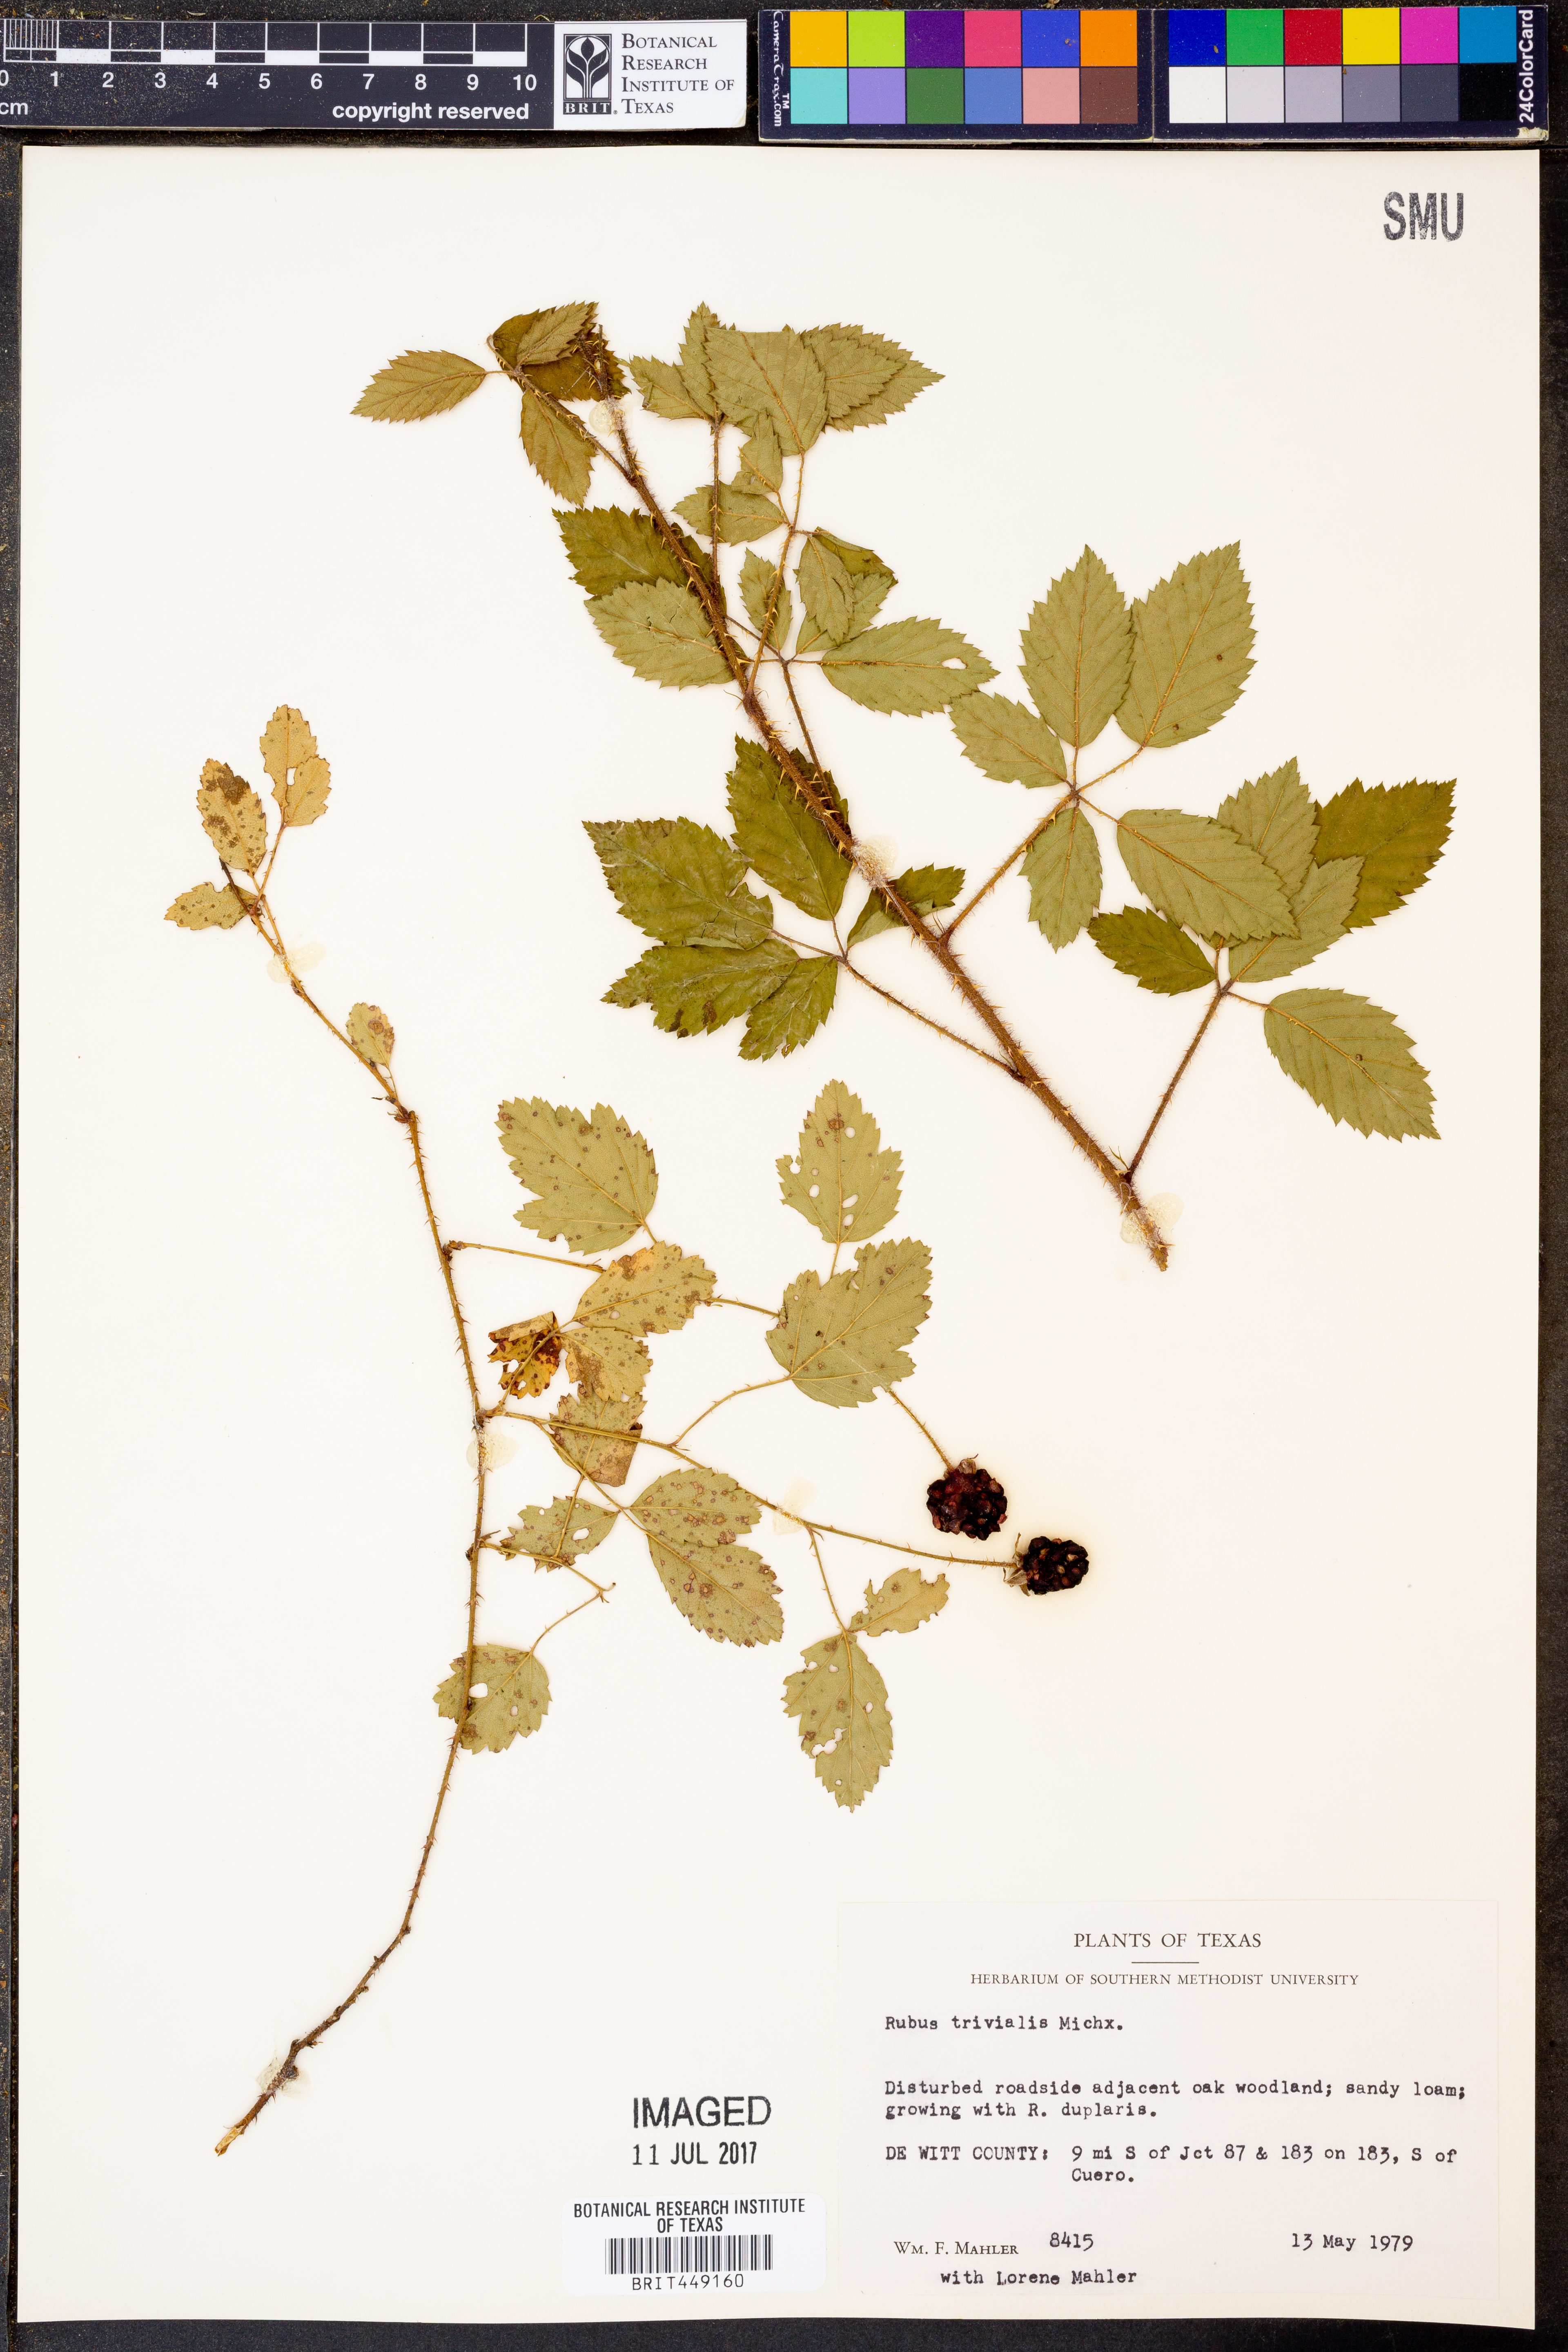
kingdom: Plantae
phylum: Tracheophyta
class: Magnoliopsida
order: Rosales
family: Rosaceae
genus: Rubus
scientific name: Rubus trivialis
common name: Southern dewberry
